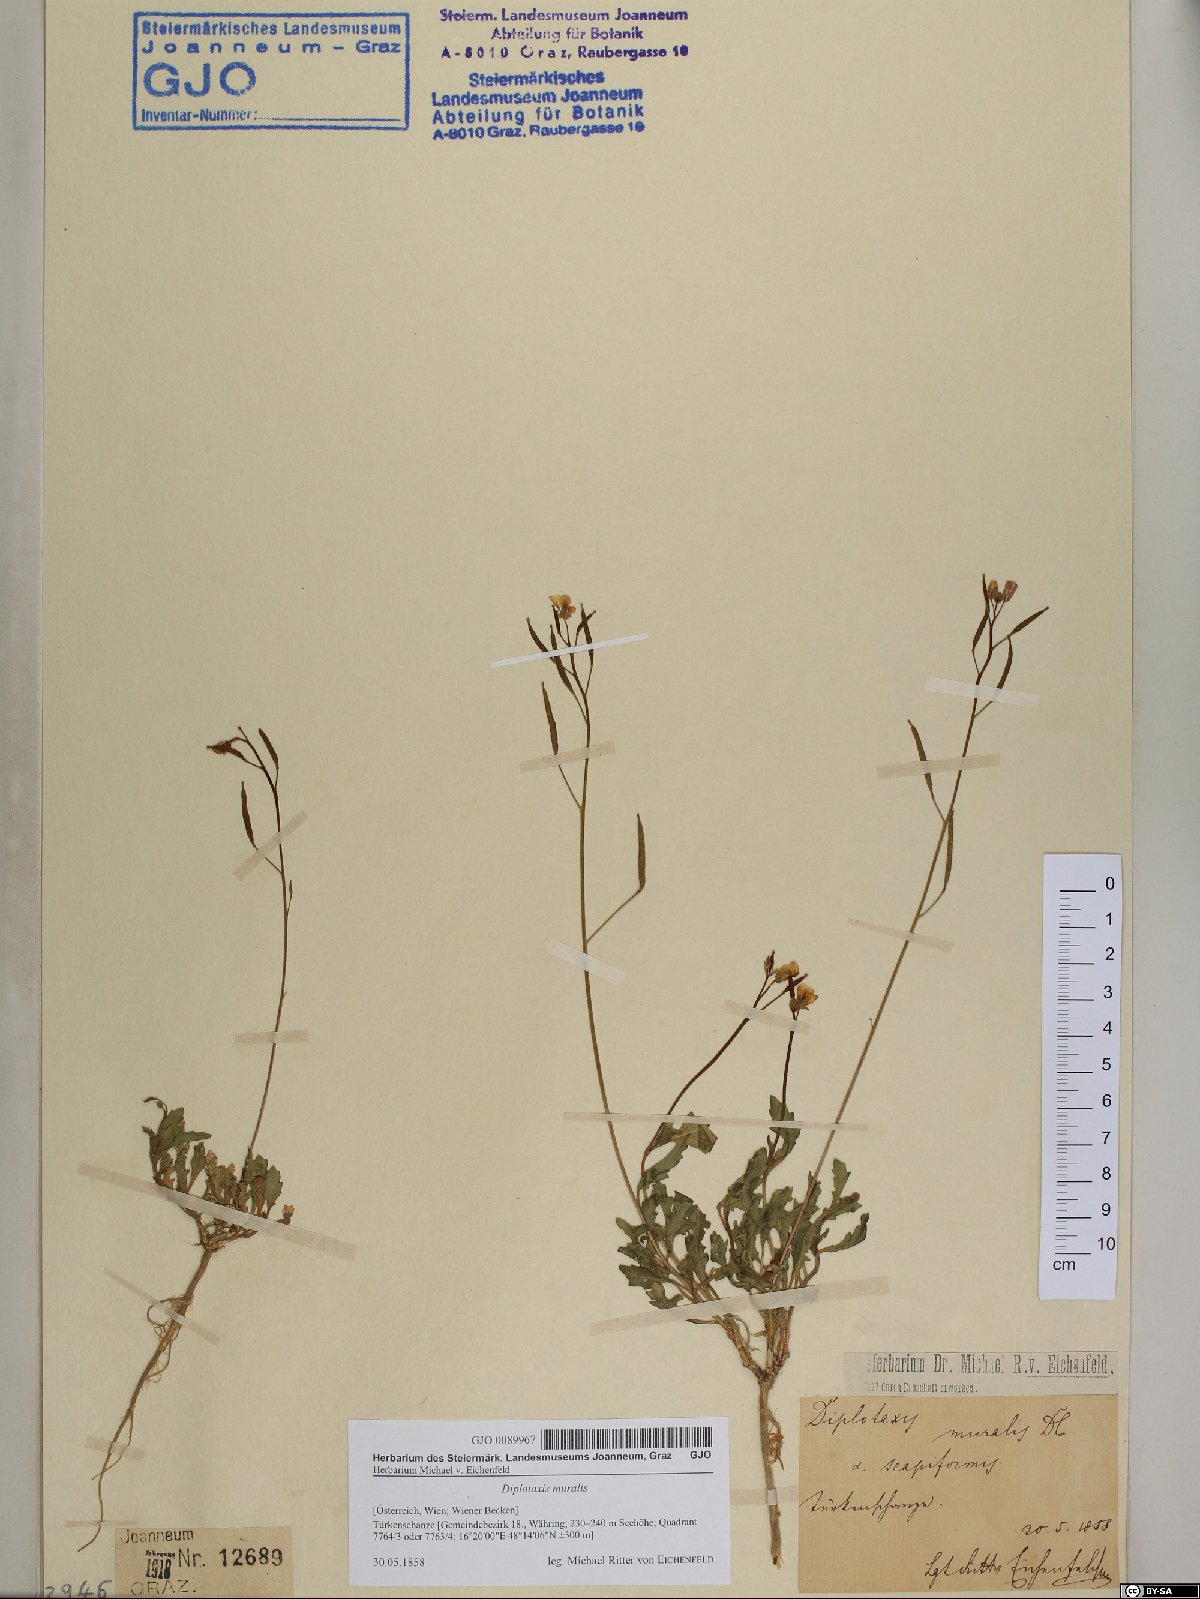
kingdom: Plantae
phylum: Tracheophyta
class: Magnoliopsida
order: Brassicales
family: Brassicaceae
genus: Diplotaxis
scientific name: Diplotaxis muralis
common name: Annual wall-rocket
